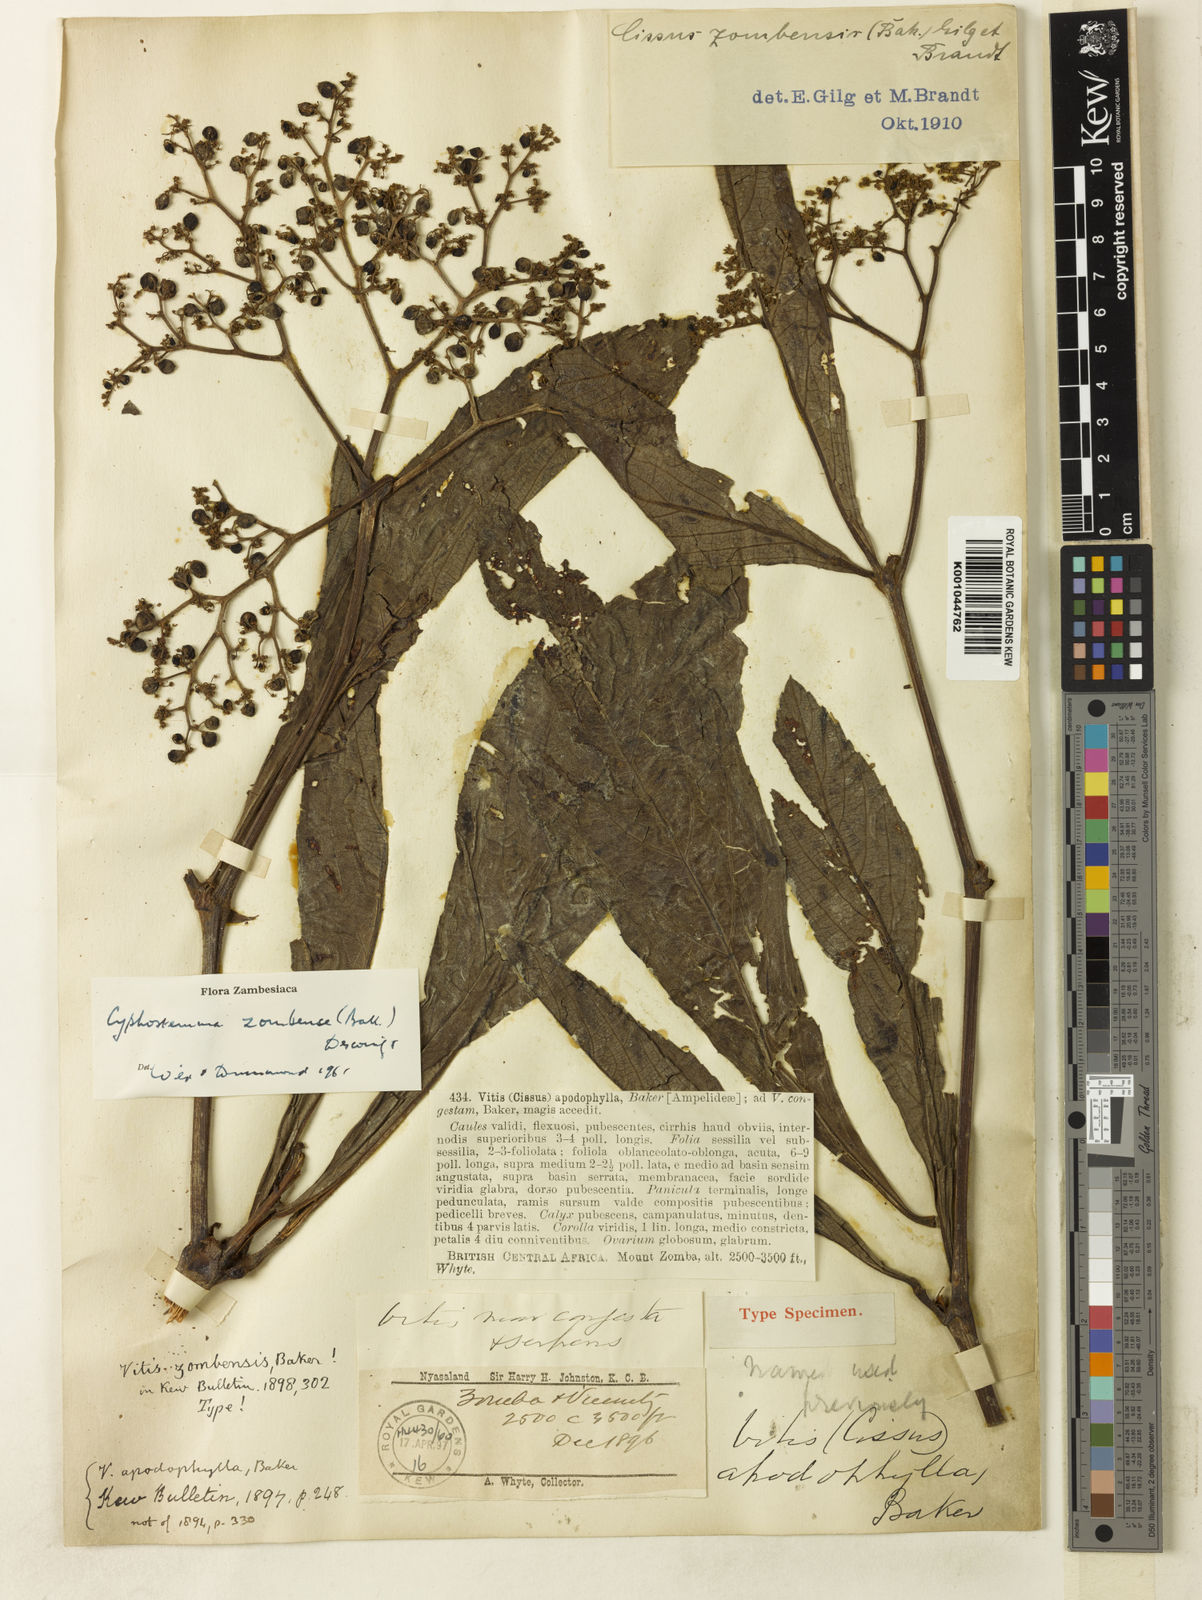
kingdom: Plantae
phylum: Tracheophyta
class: Magnoliopsida
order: Vitales
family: Vitaceae
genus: Cyphostemma
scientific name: Cyphostemma
